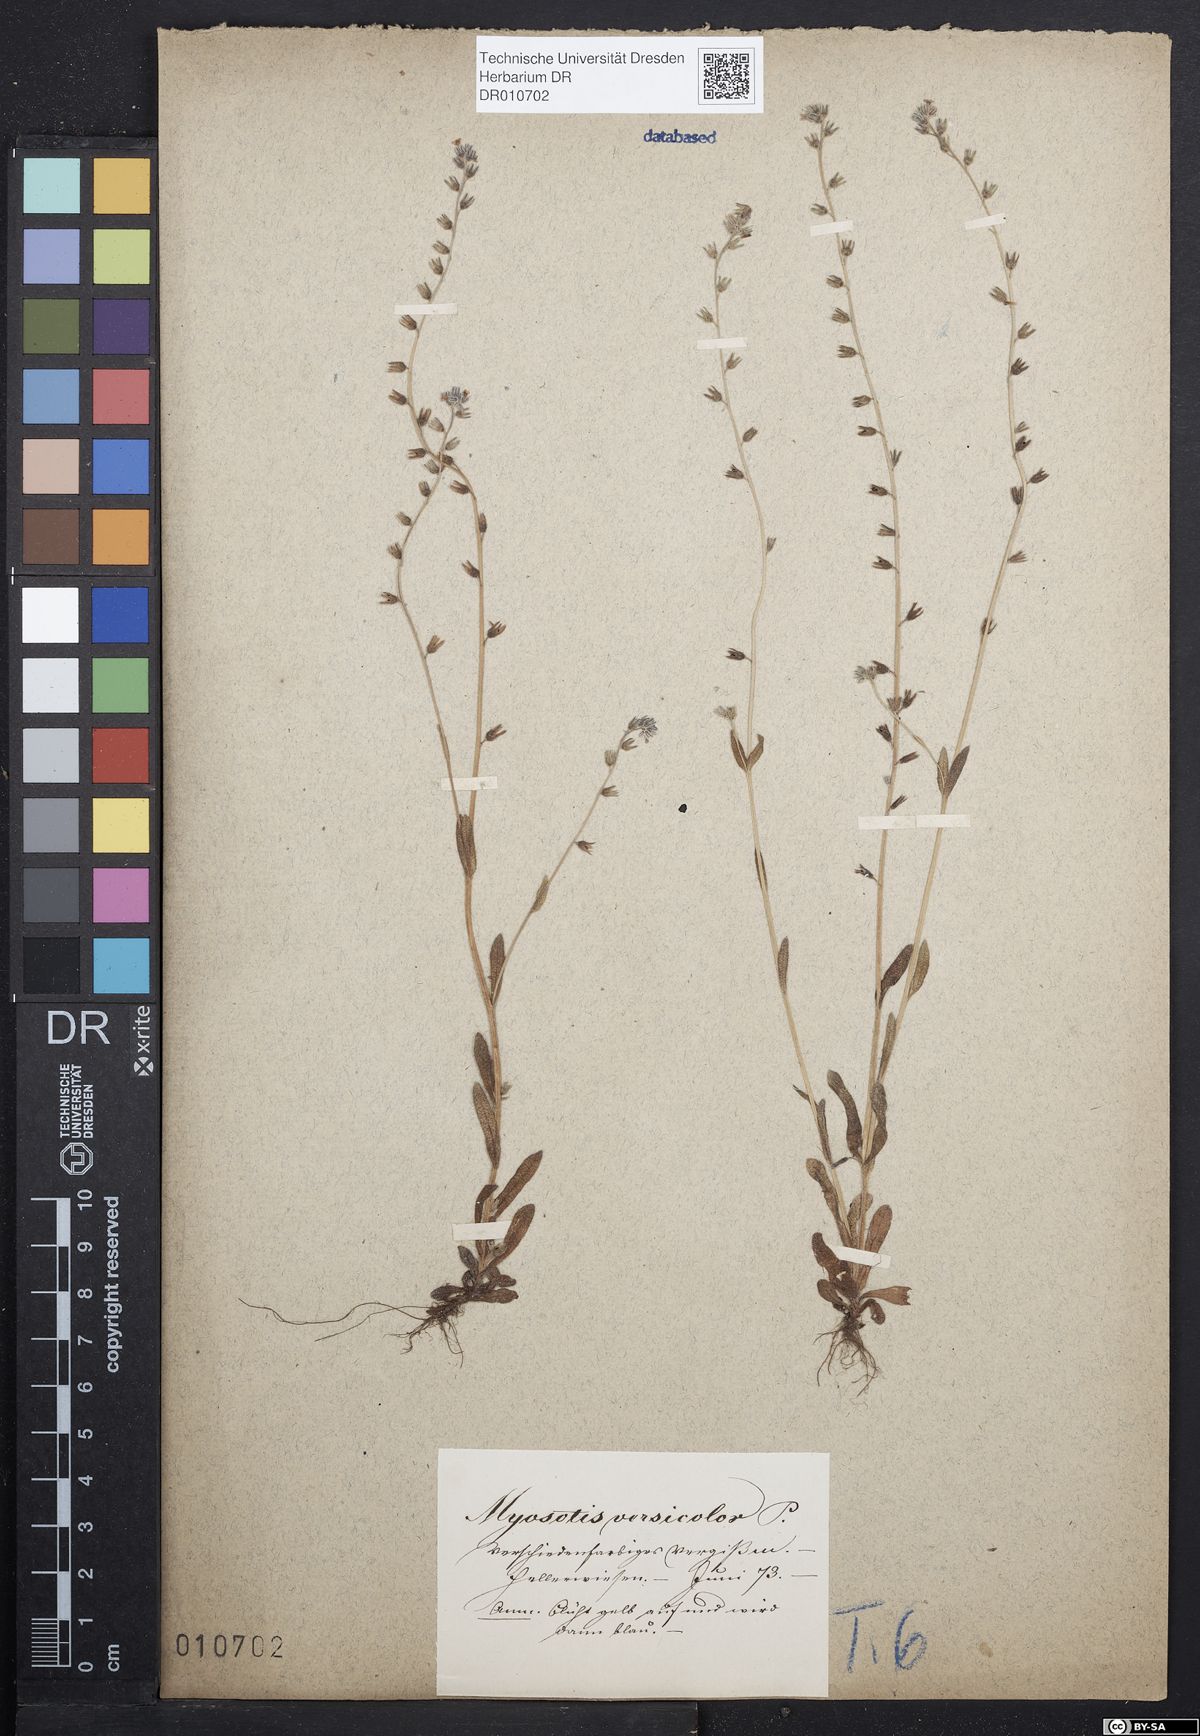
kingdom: Plantae
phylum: Tracheophyta
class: Magnoliopsida
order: Boraginales
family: Boraginaceae
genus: Myosotis
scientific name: Myosotis discolor
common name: Changing forget-me-not
